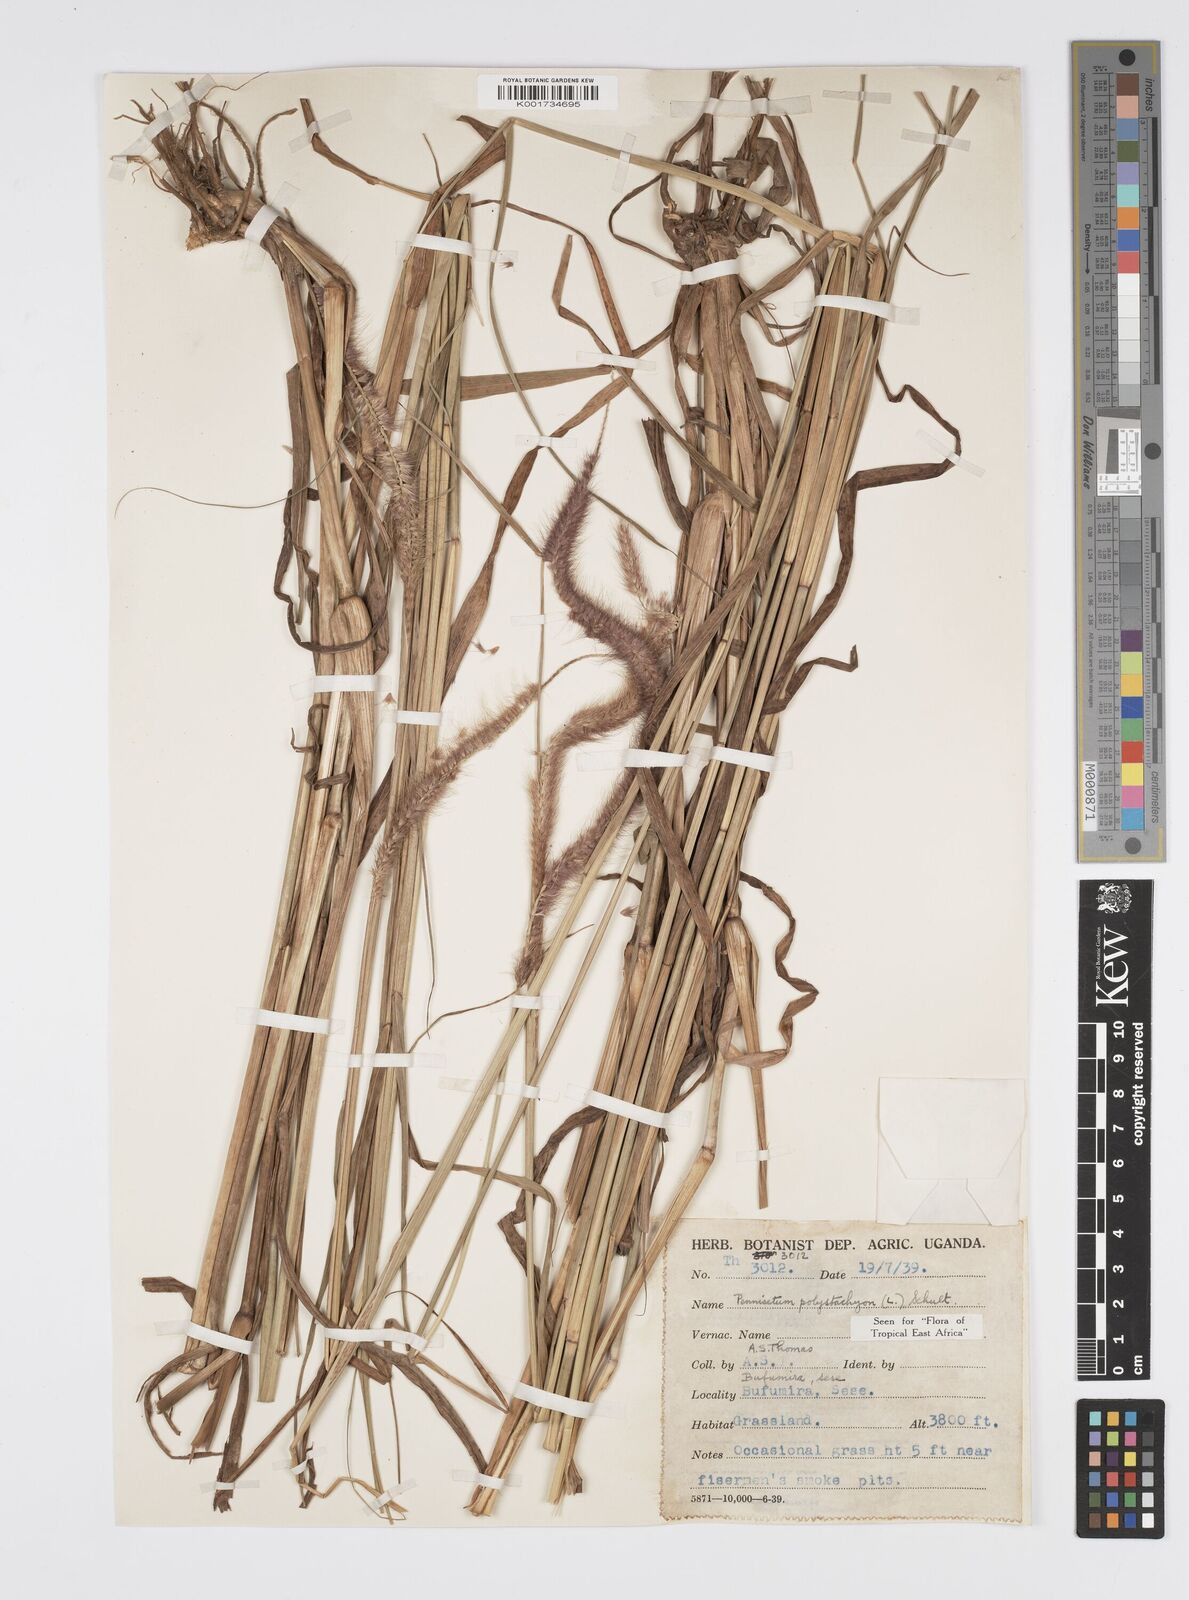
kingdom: Plantae
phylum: Tracheophyta
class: Liliopsida
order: Poales
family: Poaceae
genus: Setaria
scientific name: Setaria parviflora
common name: Knotroot bristle-grass
